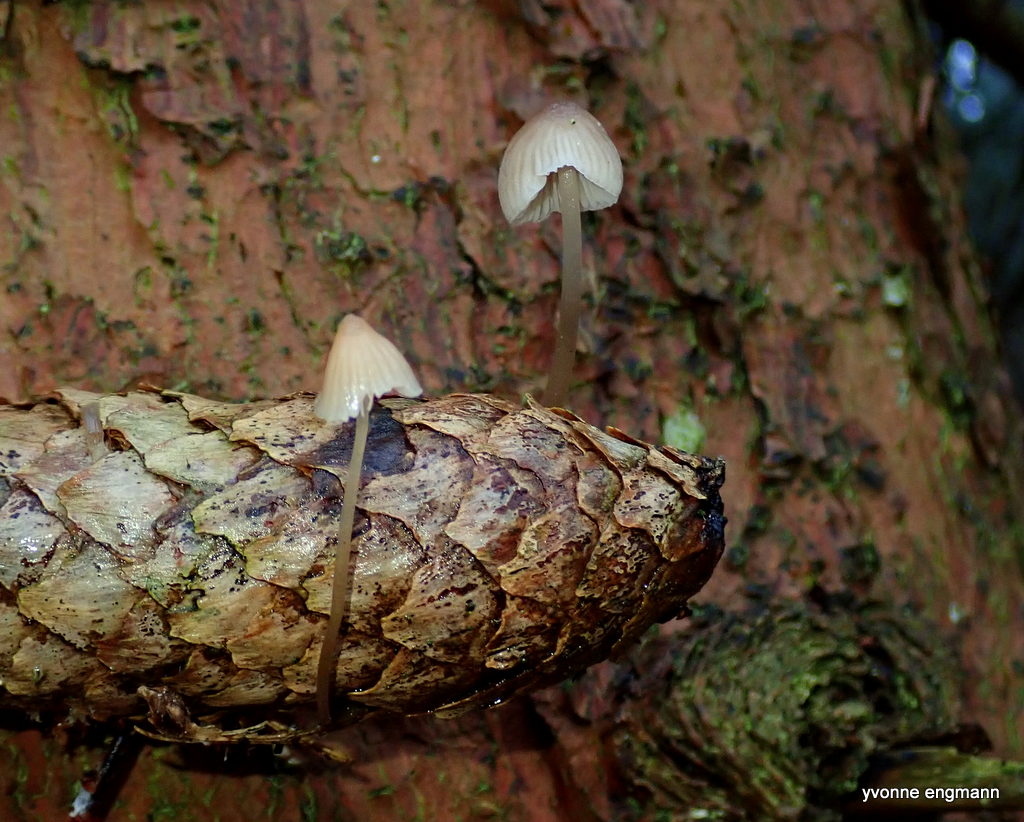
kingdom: Fungi
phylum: Basidiomycota
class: Agaricomycetes
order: Agaricales
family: Mycenaceae
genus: Mycena
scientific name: Mycena metata
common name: rødlig huesvamp
